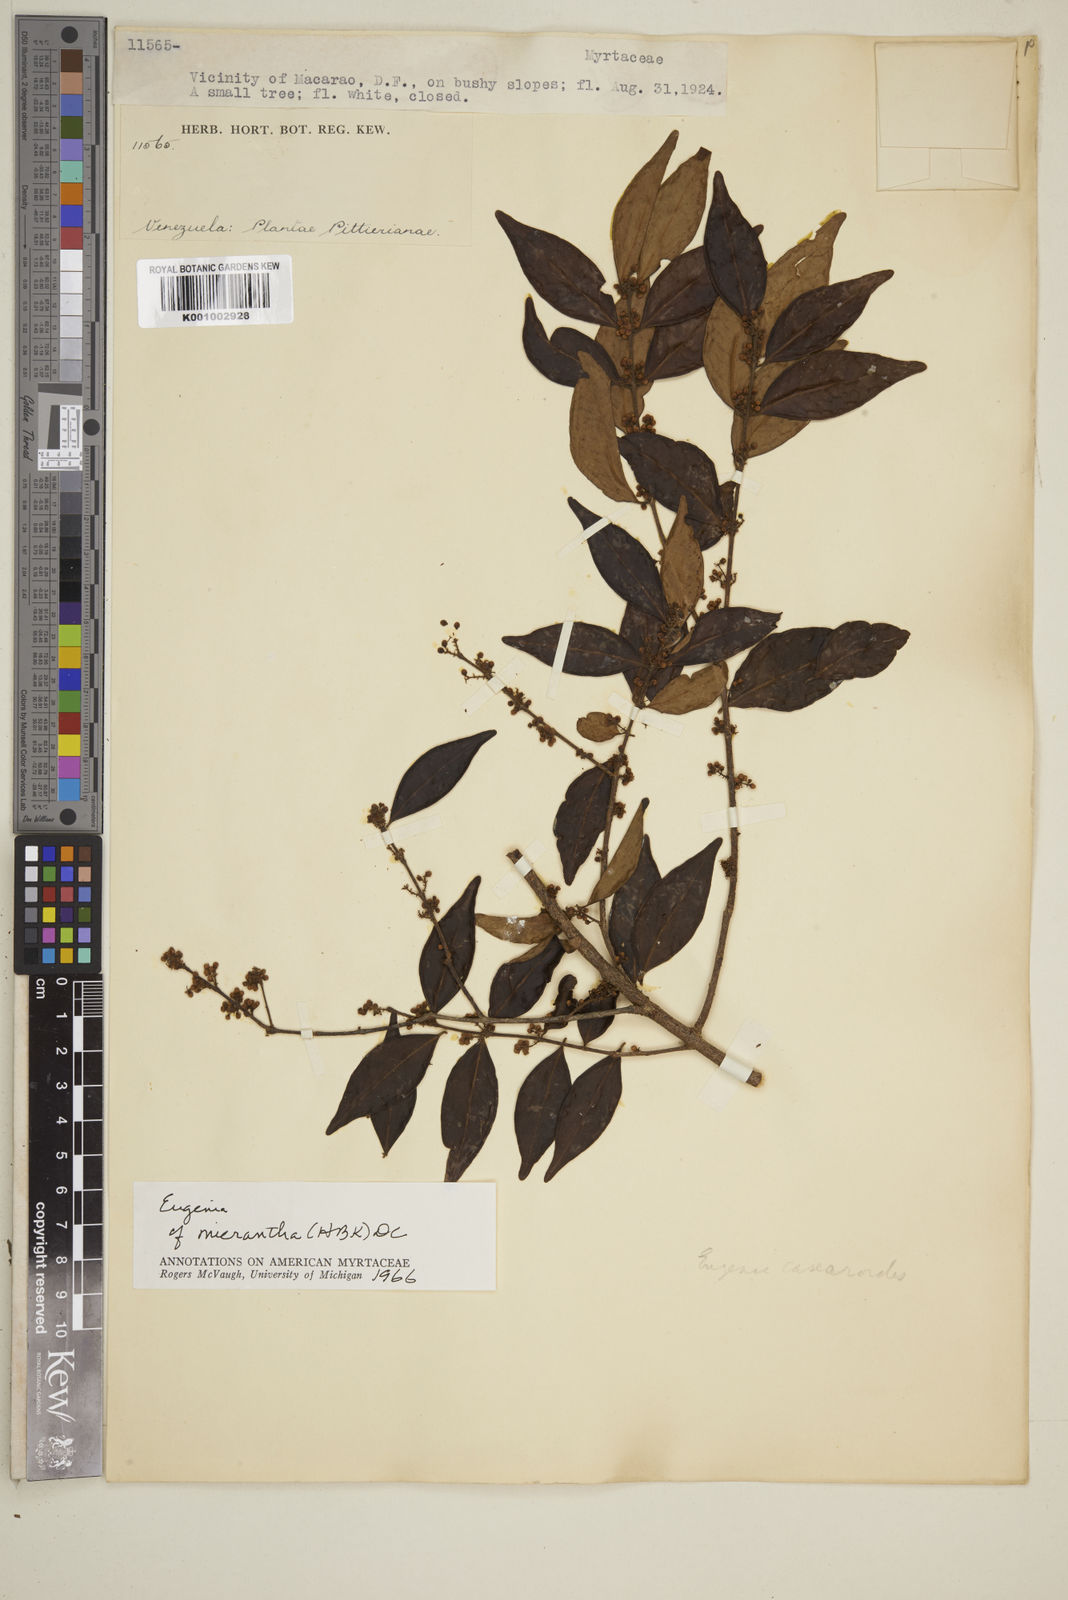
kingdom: Plantae
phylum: Tracheophyta
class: Magnoliopsida
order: Myrtales
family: Myrtaceae
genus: Eugenia
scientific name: Eugenia monticola
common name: Birds berry
